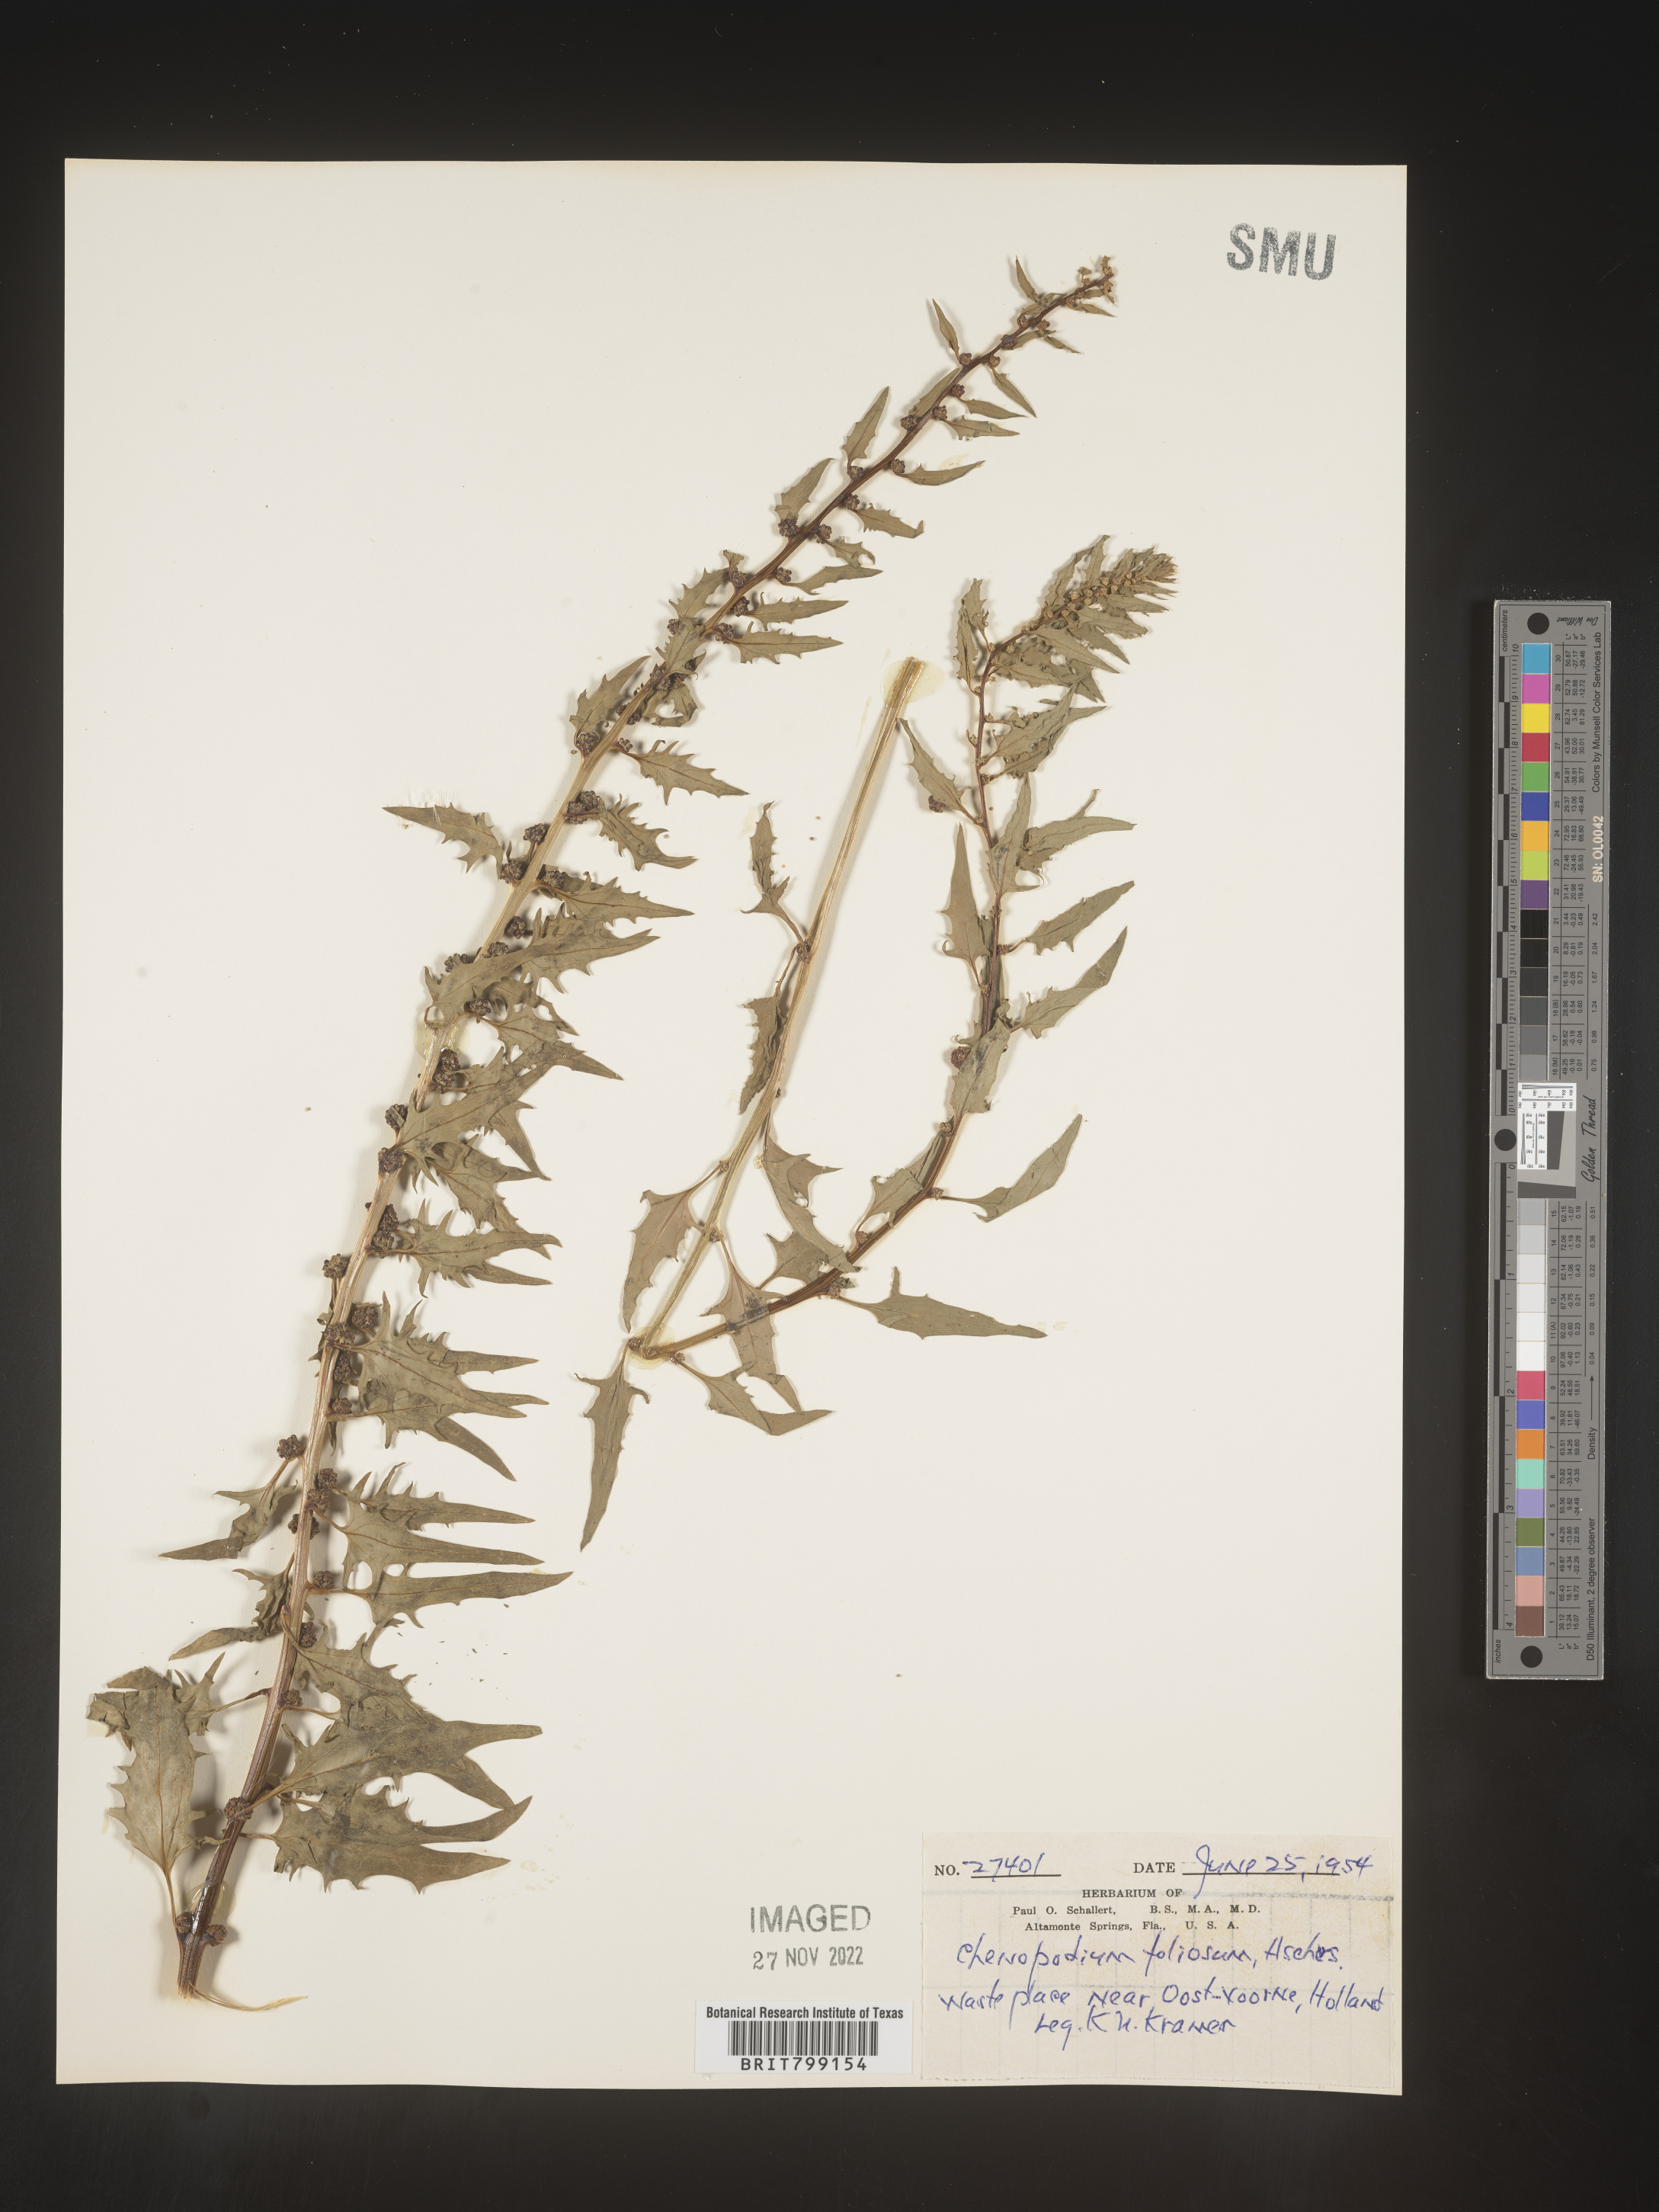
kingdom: Plantae
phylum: Tracheophyta
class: Magnoliopsida
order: Caryophyllales
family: Amaranthaceae
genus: Chenopodium
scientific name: Chenopodium
